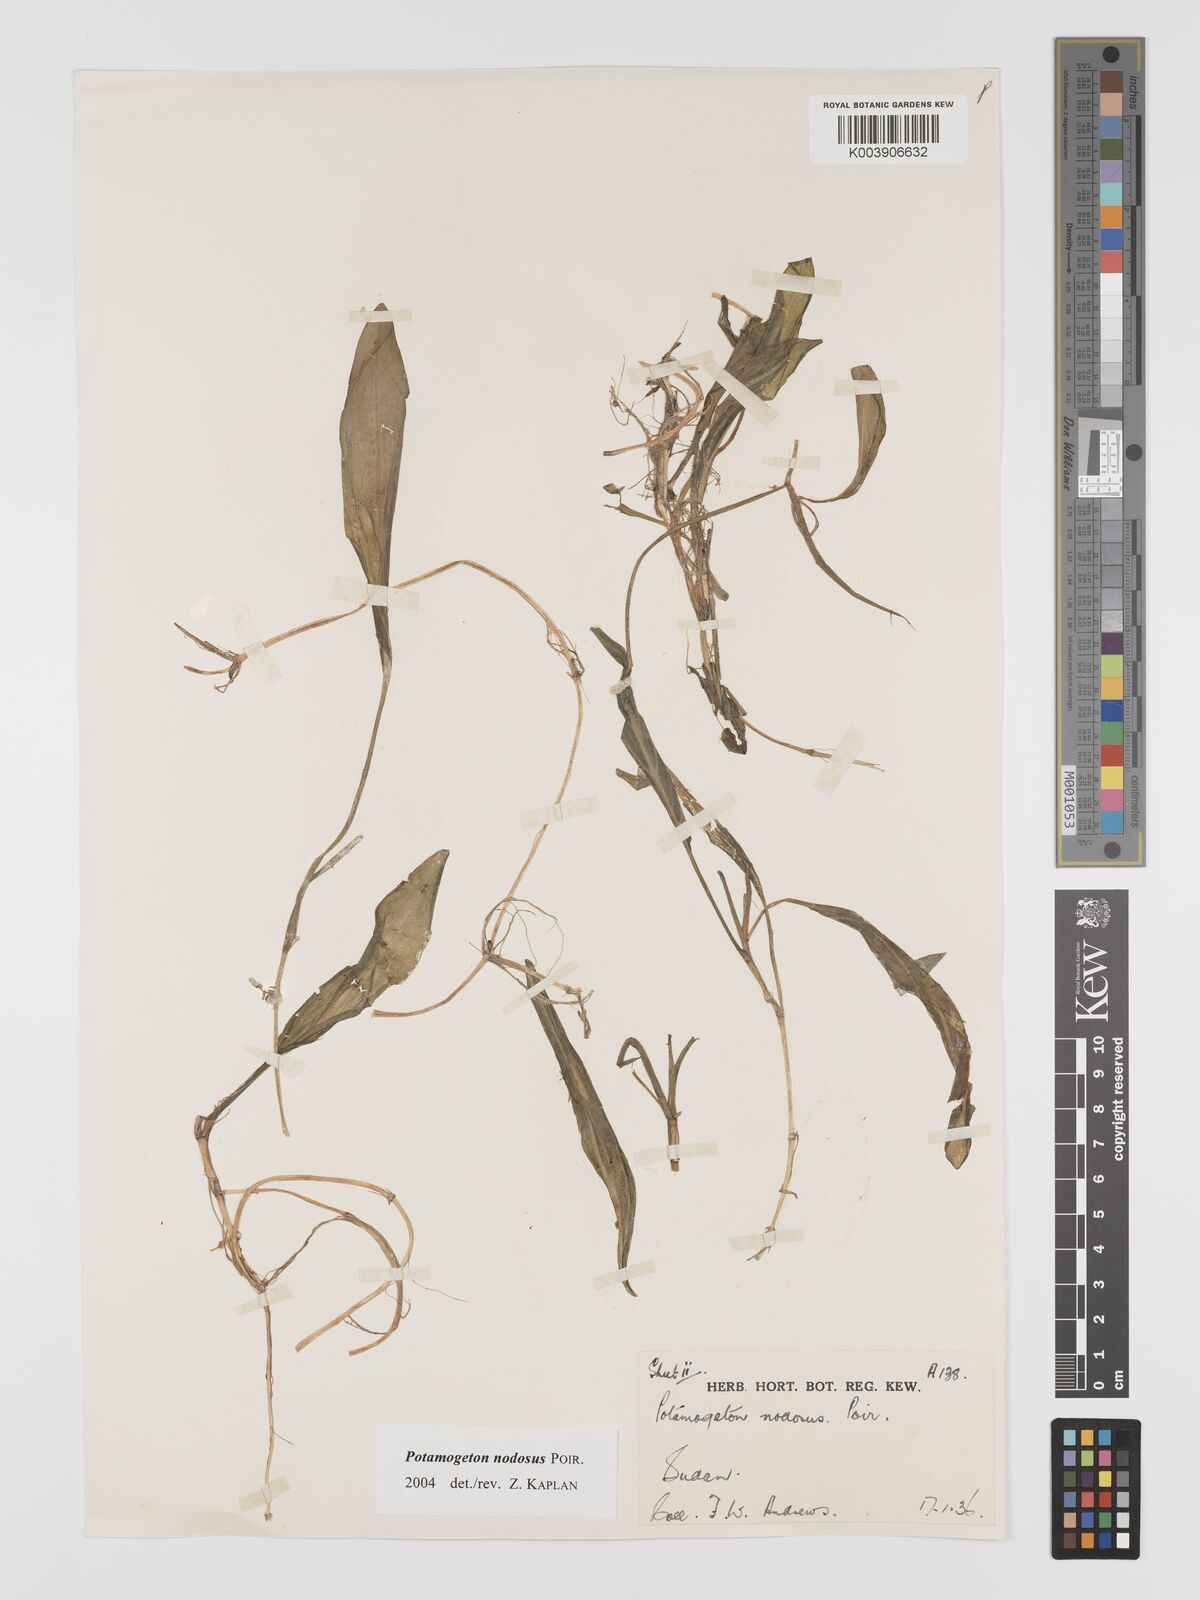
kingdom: Plantae
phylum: Tracheophyta
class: Liliopsida
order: Alismatales
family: Potamogetonaceae
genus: Potamogeton
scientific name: Potamogeton nodosus
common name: Loddon pondweed
